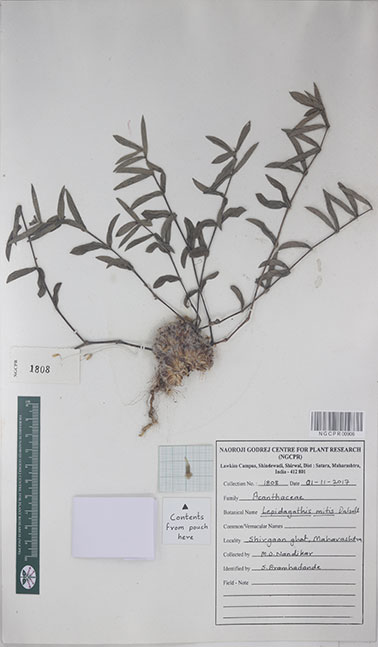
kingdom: Plantae
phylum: Tracheophyta
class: Magnoliopsida
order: Lamiales
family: Acanthaceae
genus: Lepidagathis
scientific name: Lepidagathis mitis
